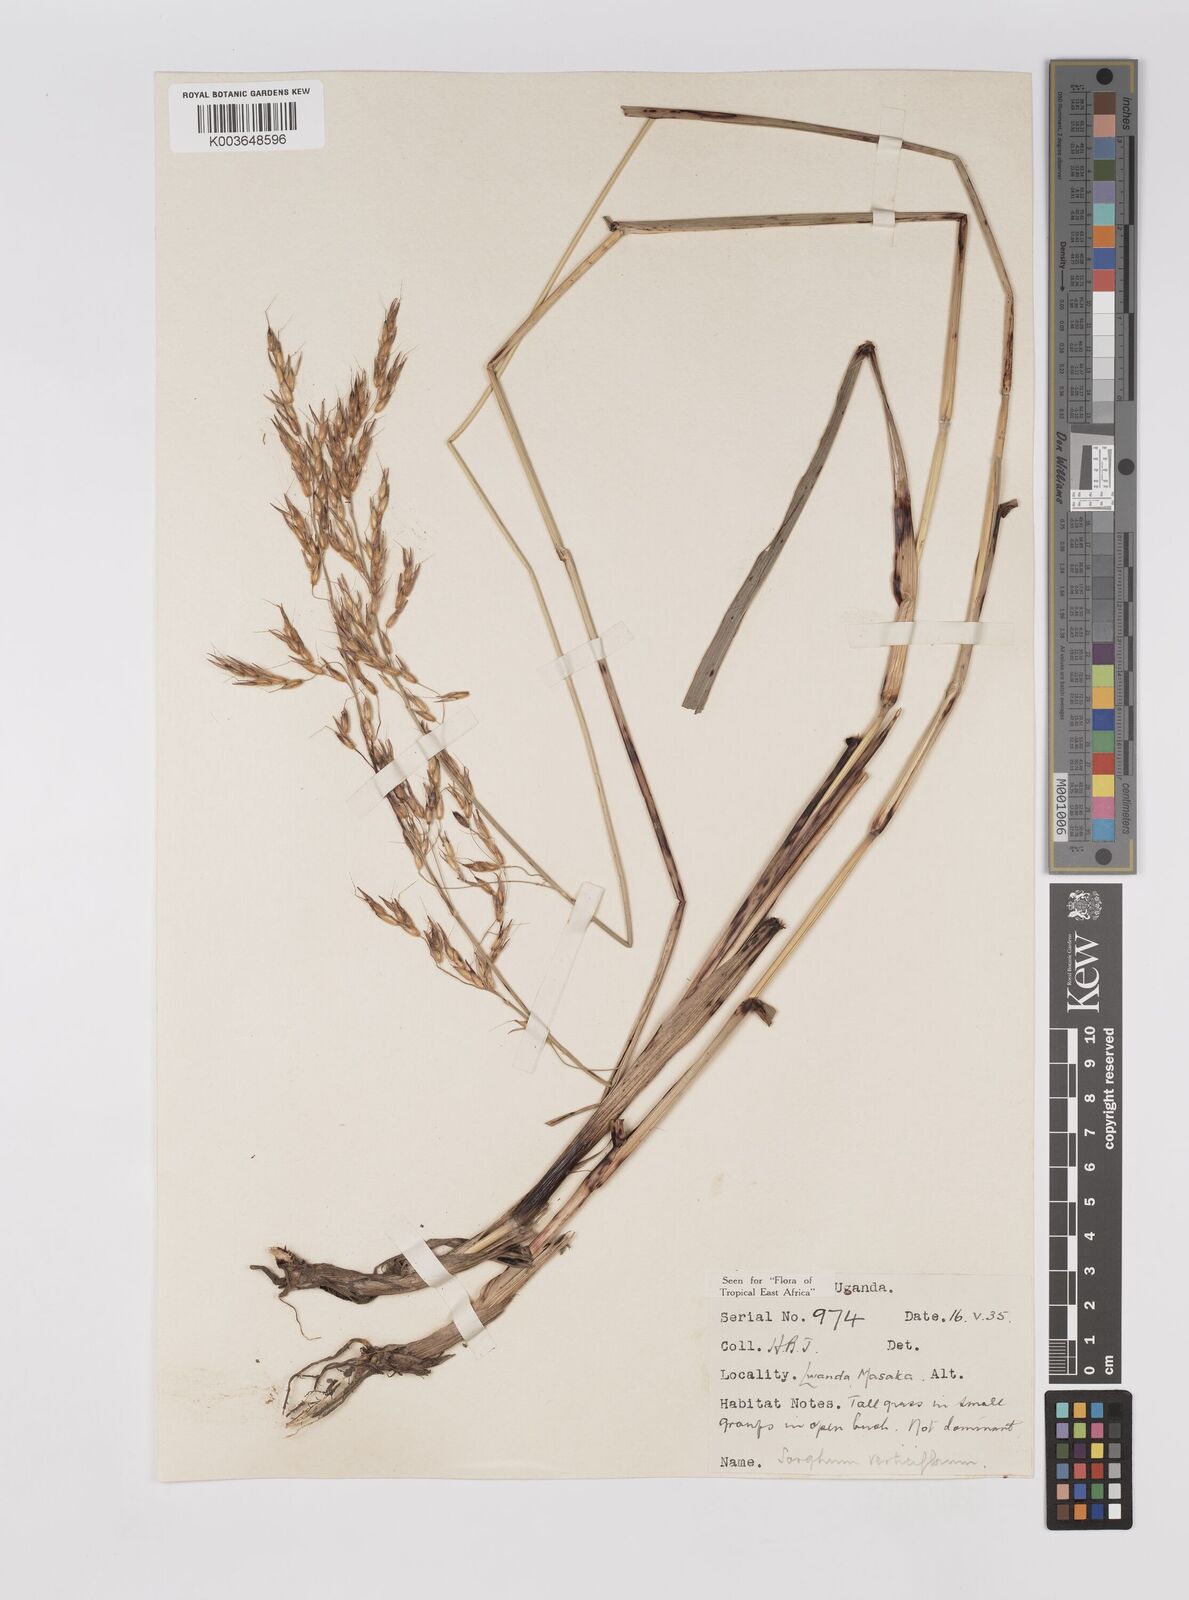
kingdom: Plantae
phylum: Tracheophyta
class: Liliopsida
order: Poales
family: Poaceae
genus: Sorghum
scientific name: Sorghum arundinaceum
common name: Sorghum
